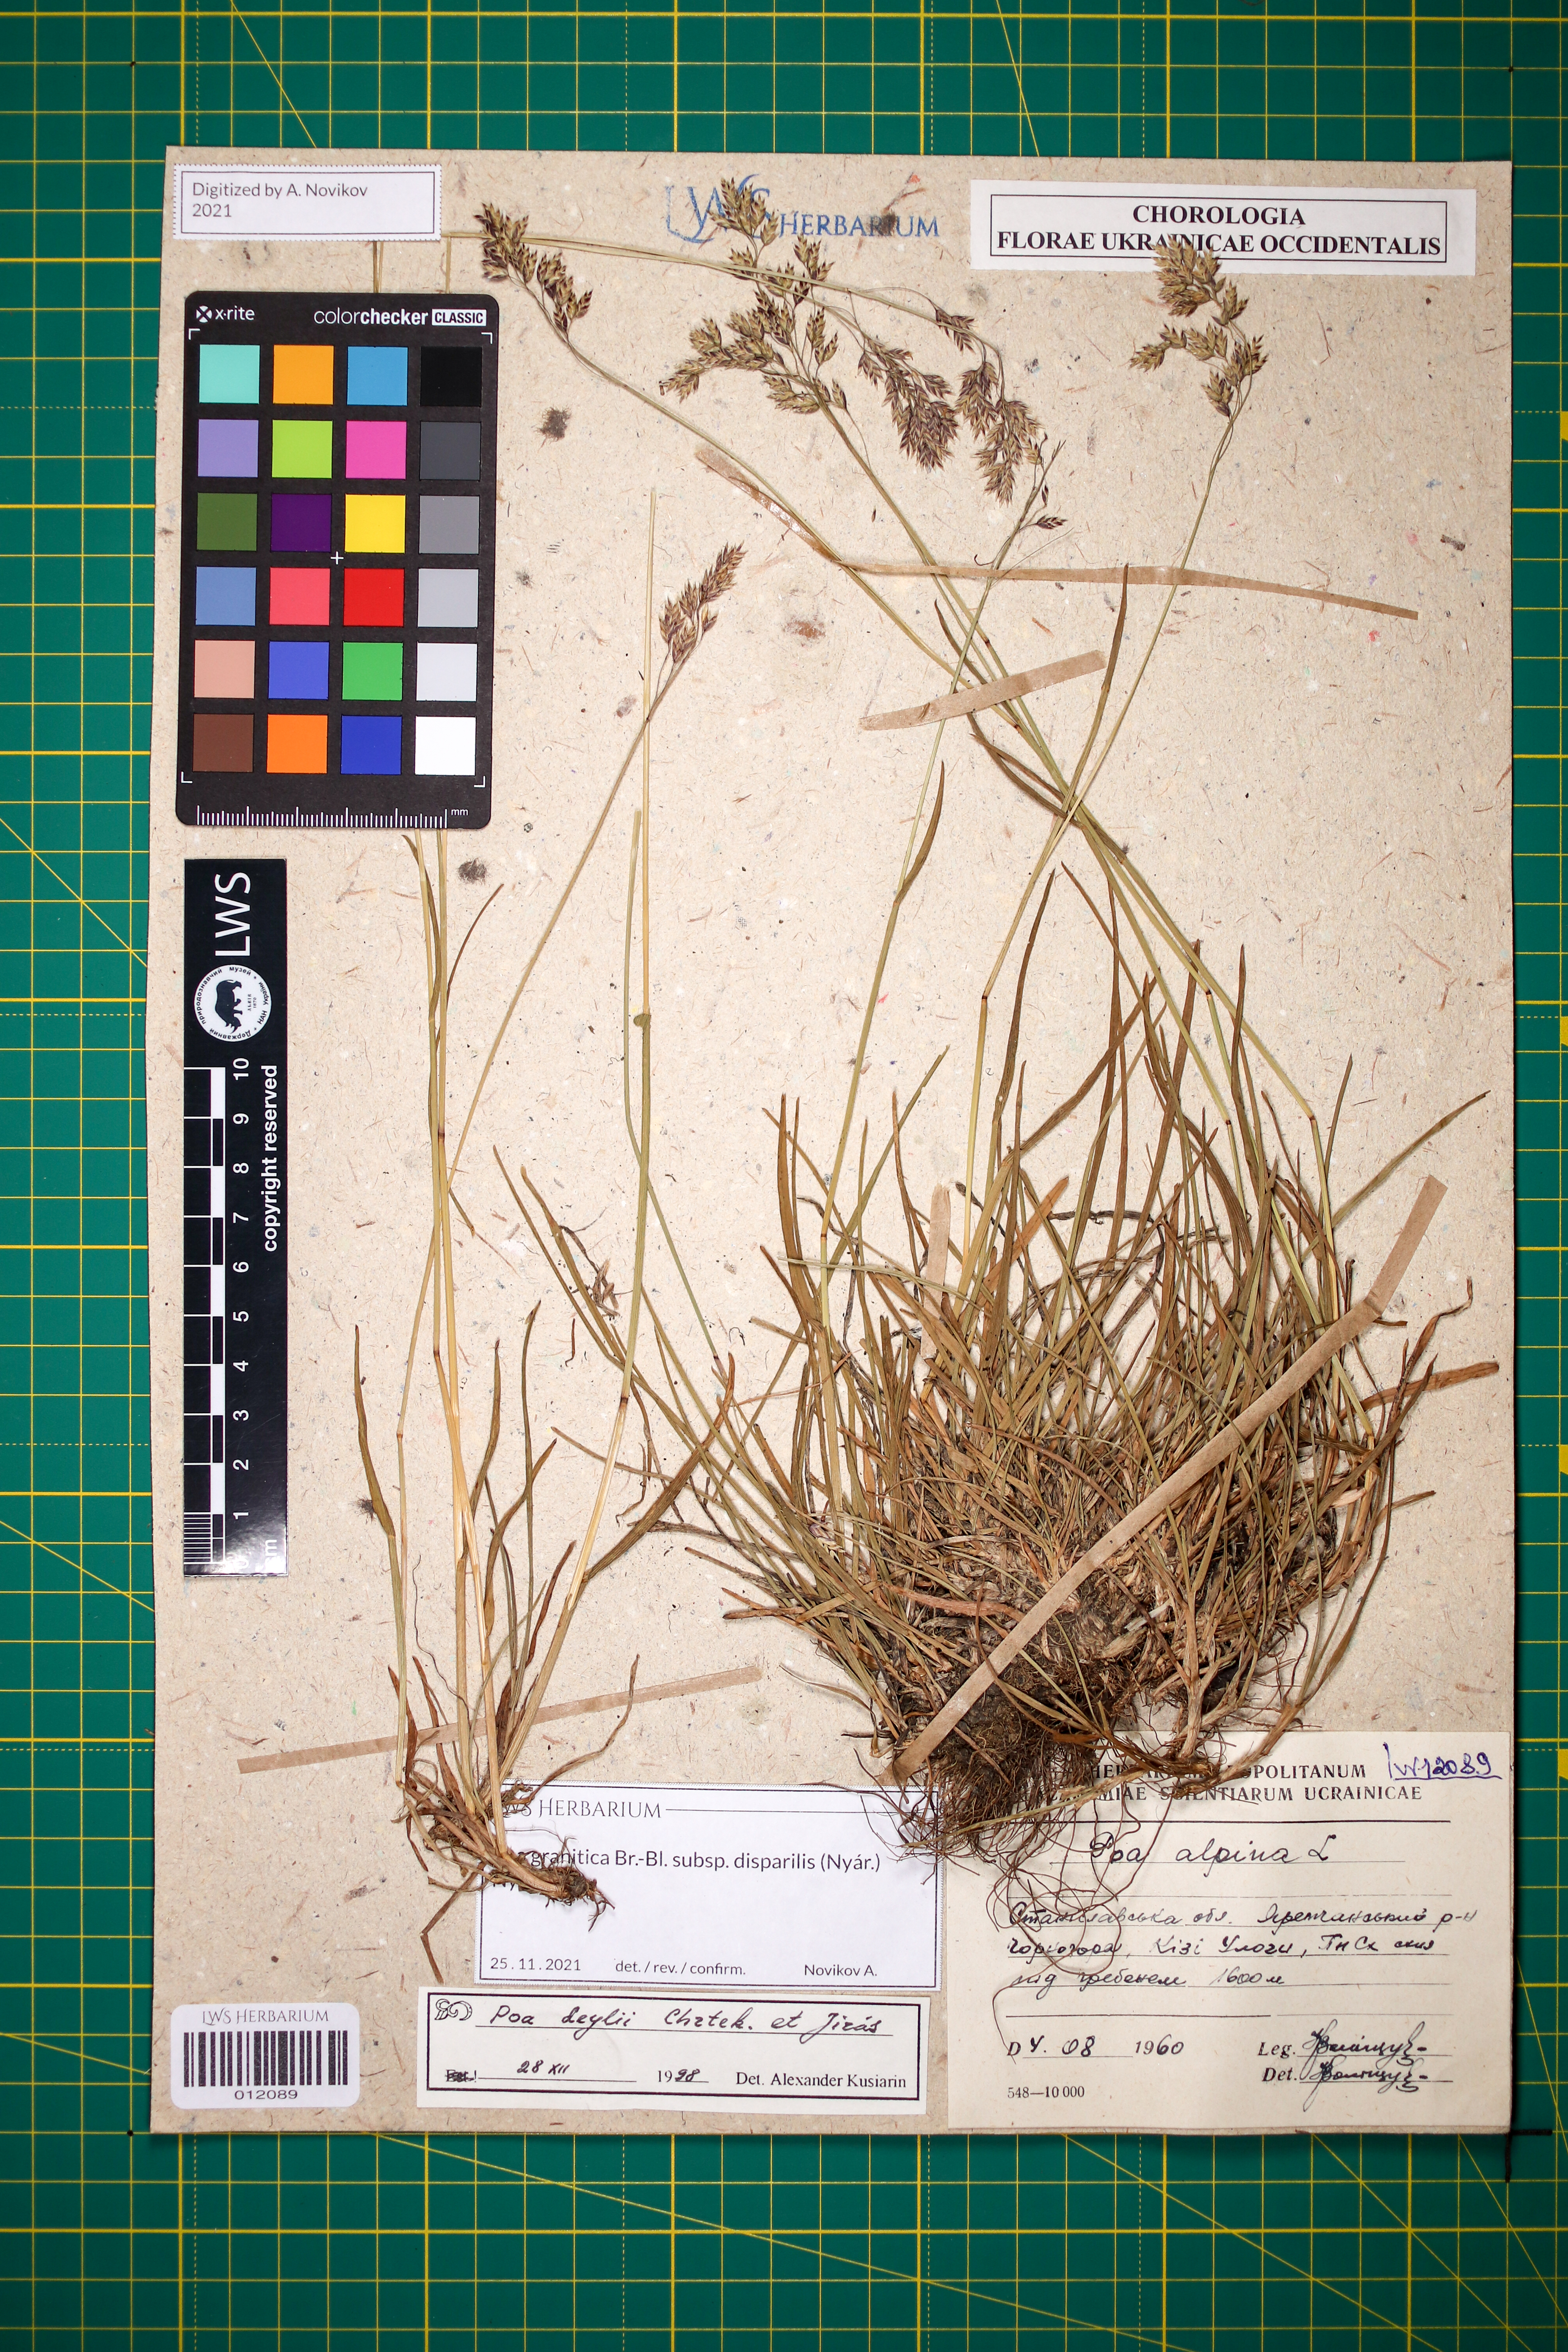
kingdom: Plantae
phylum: Tracheophyta
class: Liliopsida
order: Poales
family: Poaceae
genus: Poa
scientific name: Poa granitica
